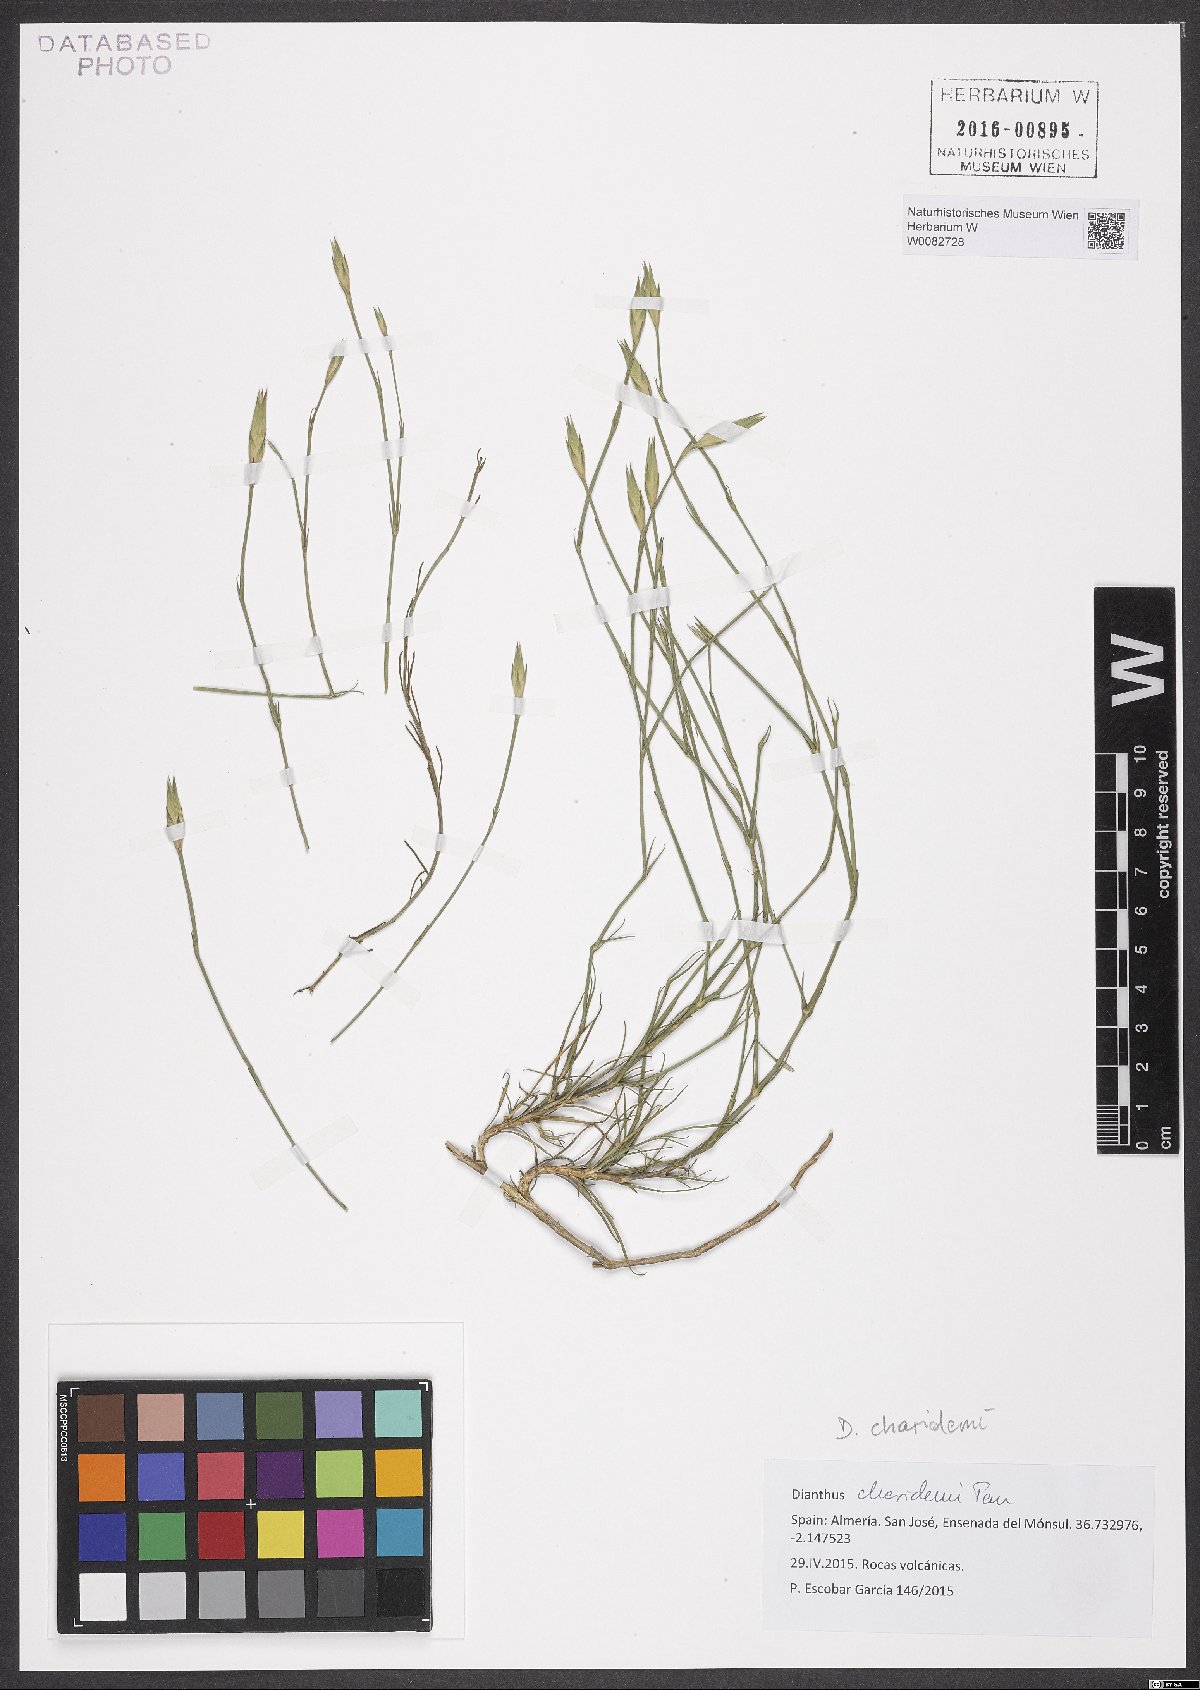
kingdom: Plantae
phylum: Tracheophyta
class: Magnoliopsida
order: Caryophyllales
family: Caryophyllaceae
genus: Dianthus
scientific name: Dianthus charidemi
